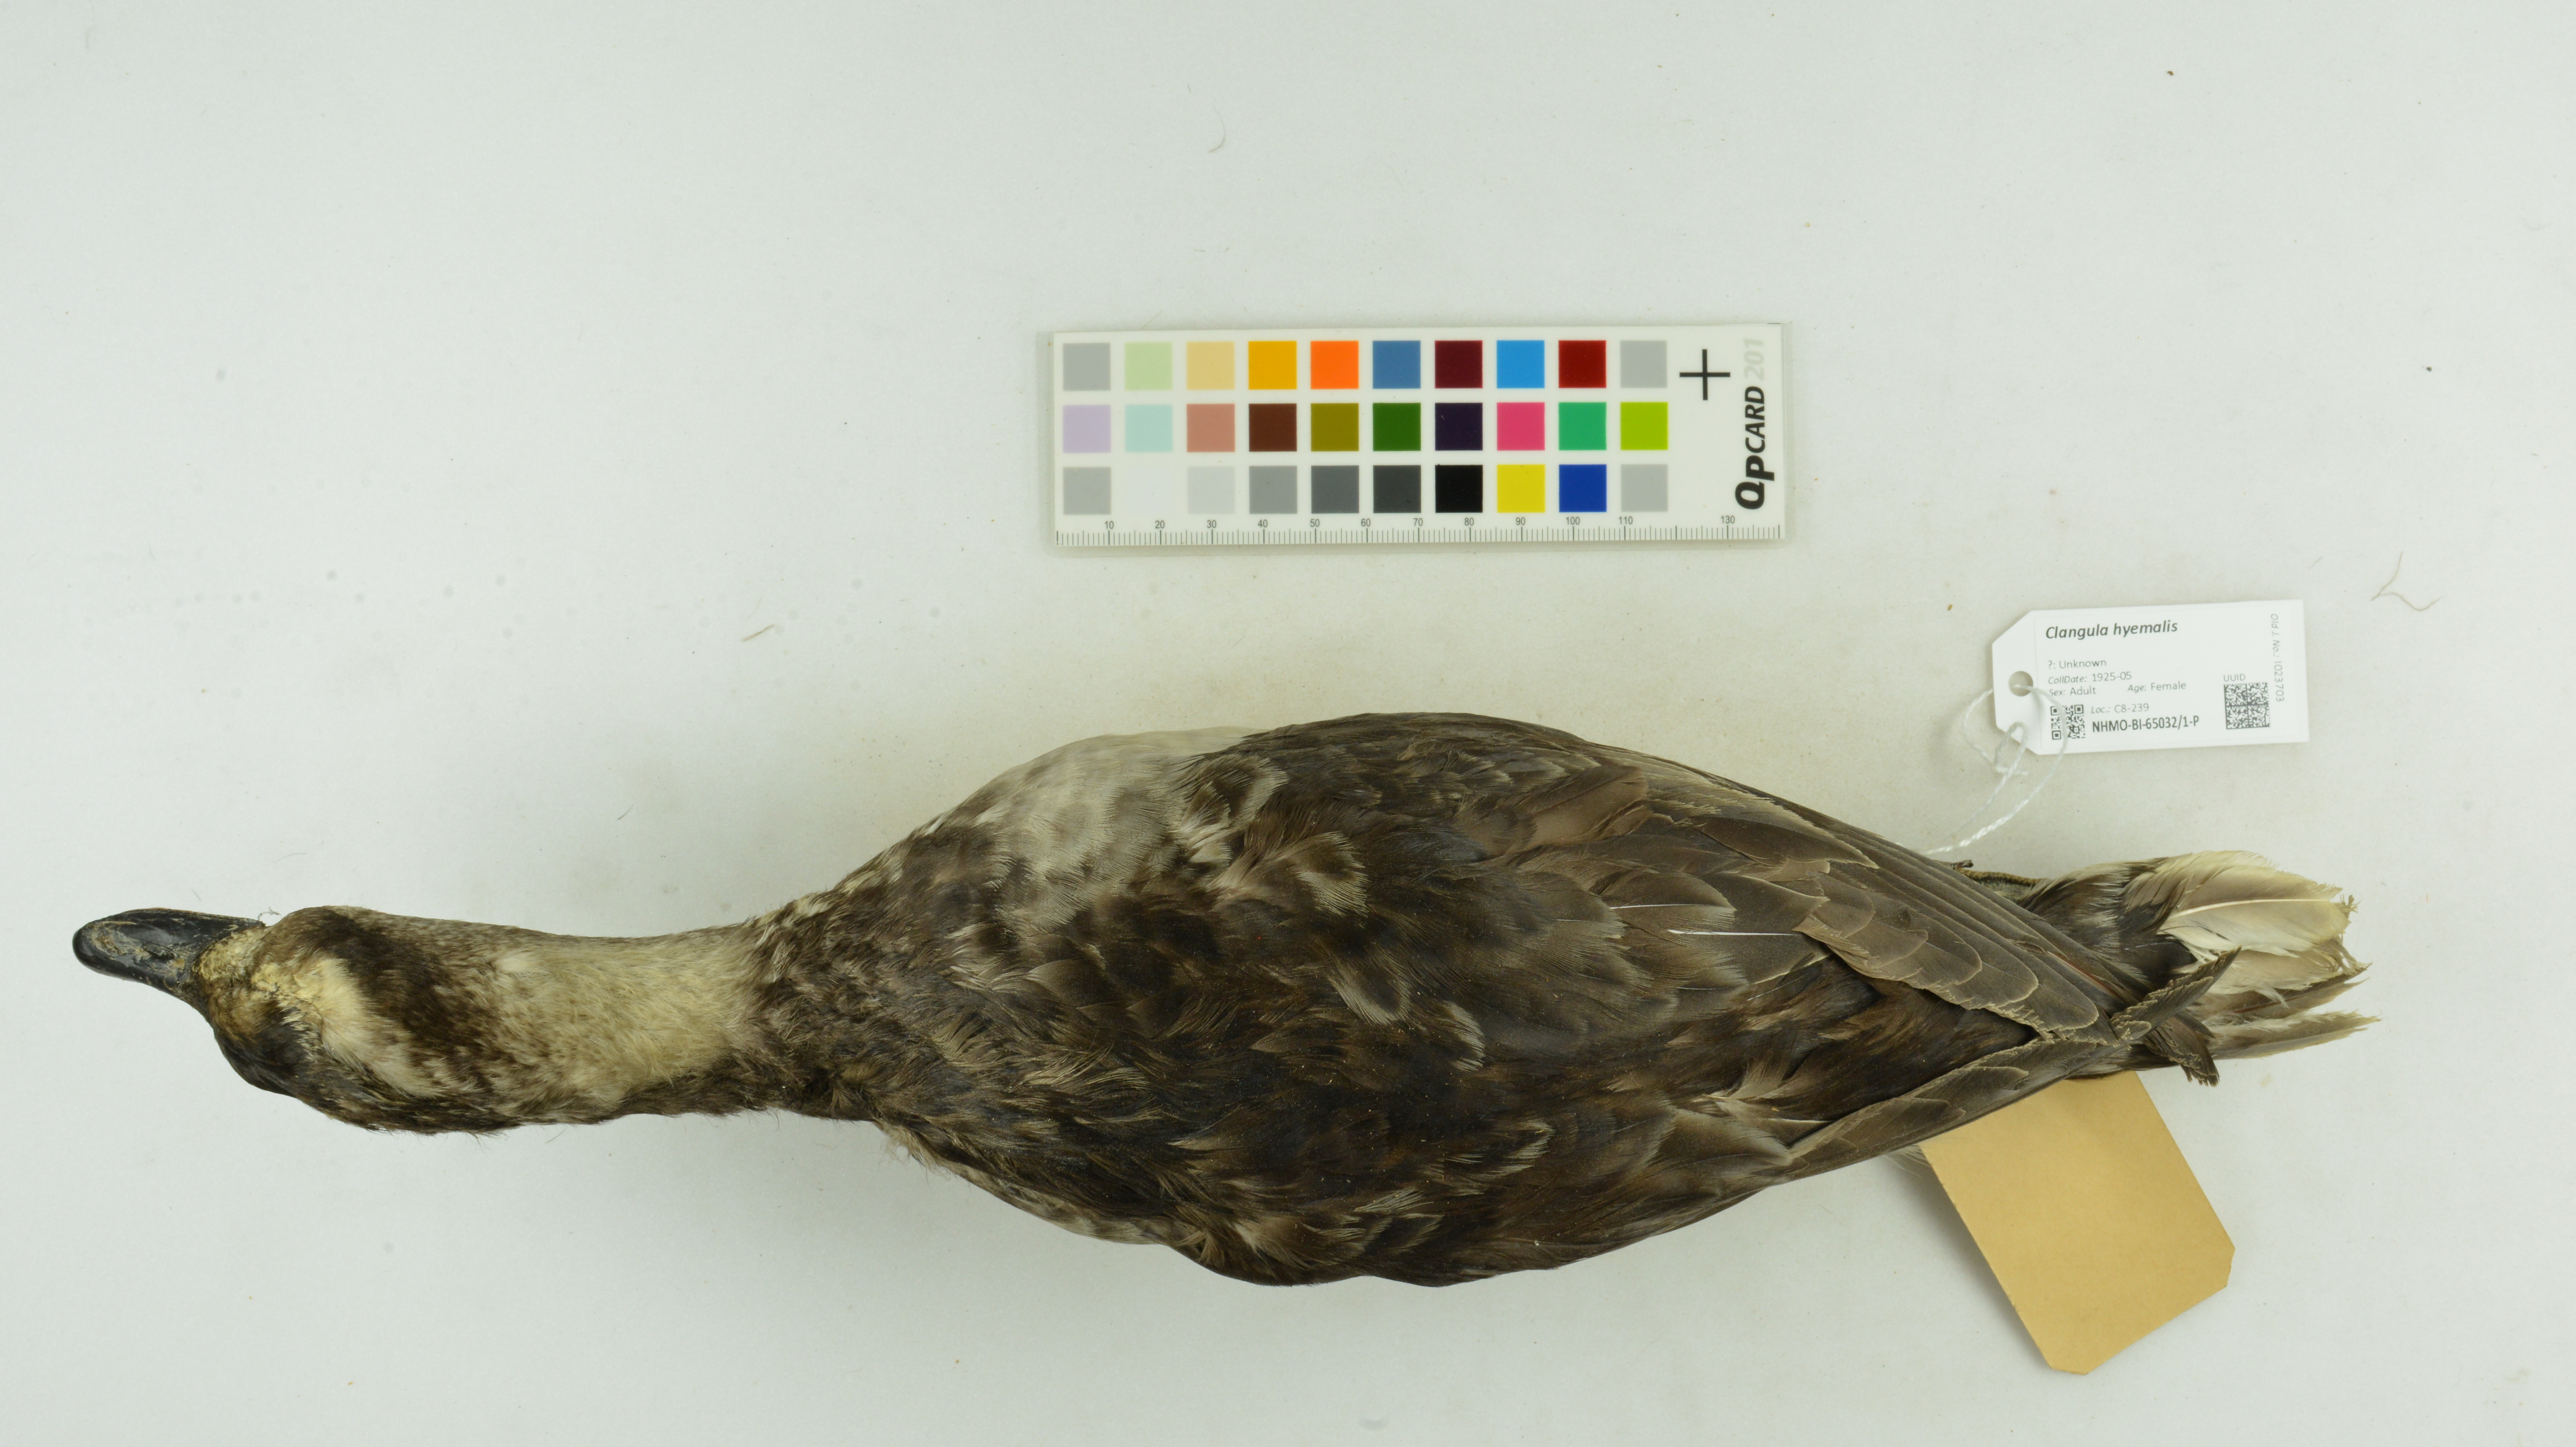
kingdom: Animalia
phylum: Chordata
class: Aves
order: Anseriformes
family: Anatidae
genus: Clangula
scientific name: Clangula hyemalis
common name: Long-tailed duck
